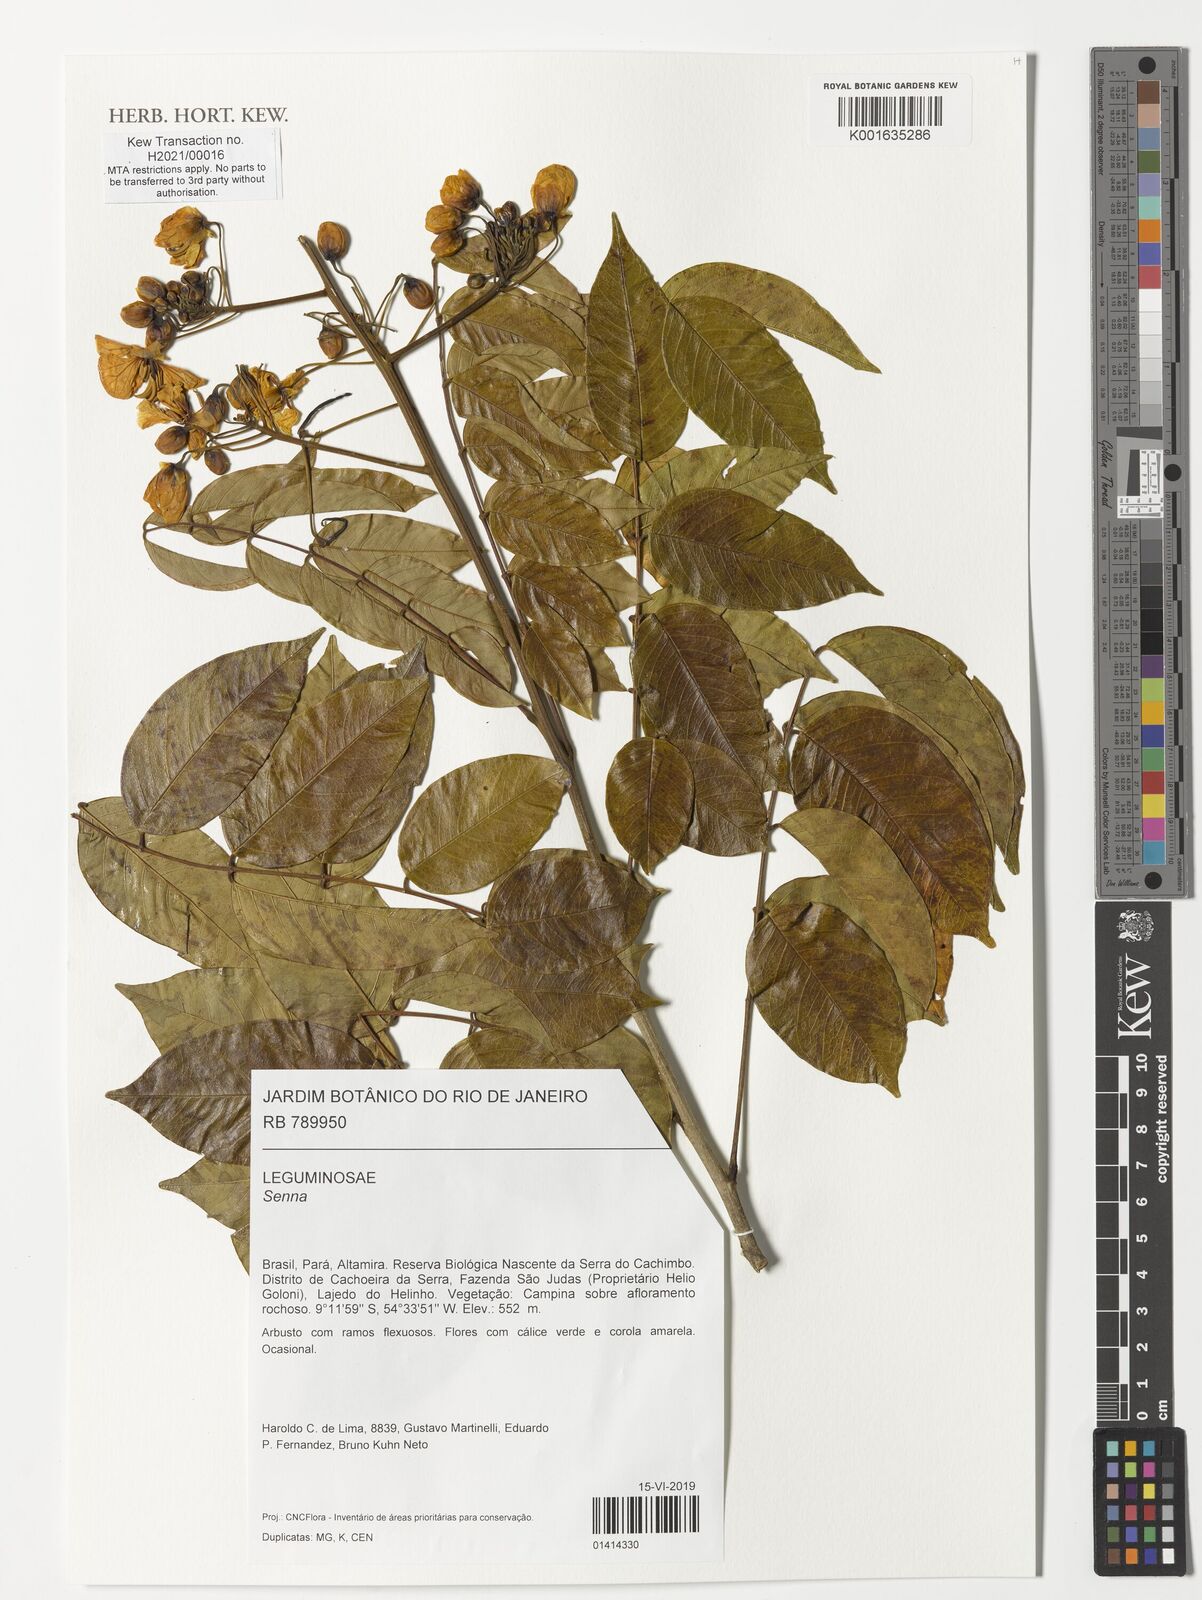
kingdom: Plantae
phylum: Tracheophyta
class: Magnoliopsida
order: Fabales
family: Fabaceae
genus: Senna
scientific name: Senna
